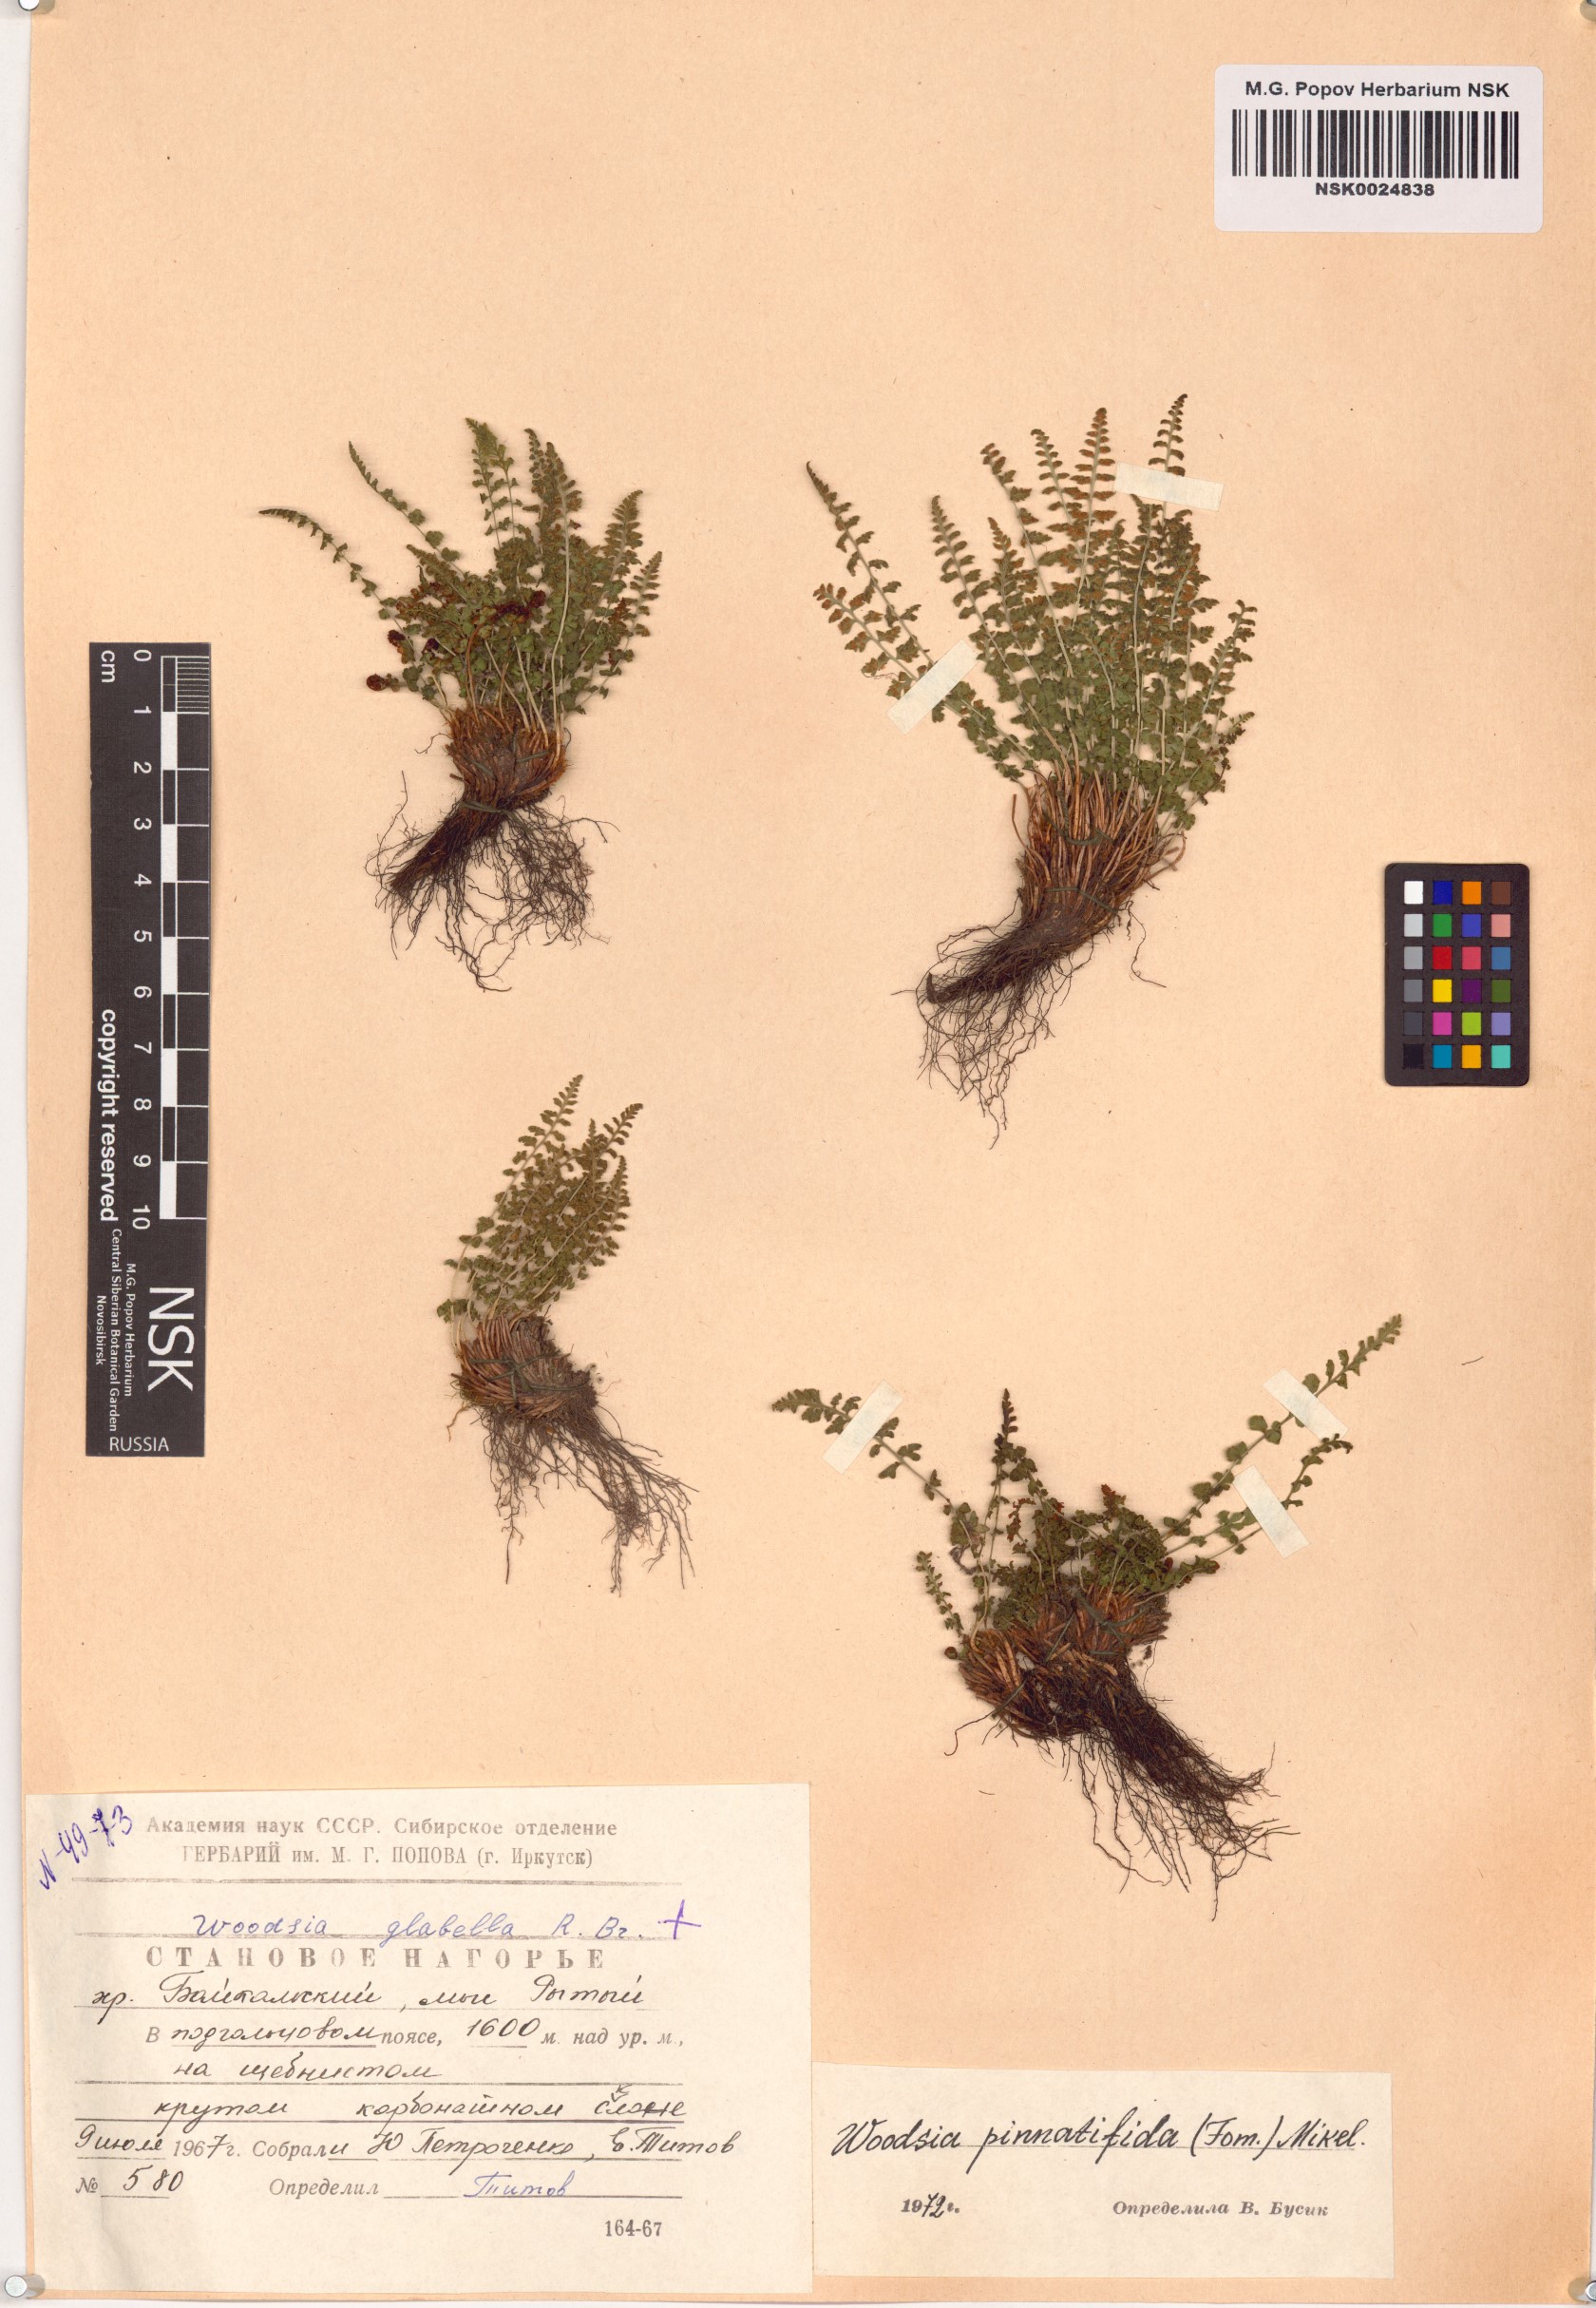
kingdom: Plantae
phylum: Tracheophyta
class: Polypodiopsida
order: Polypodiales
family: Woodsiaceae
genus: Woodsia
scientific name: Woodsia pulchella
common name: Graceful woodsia
